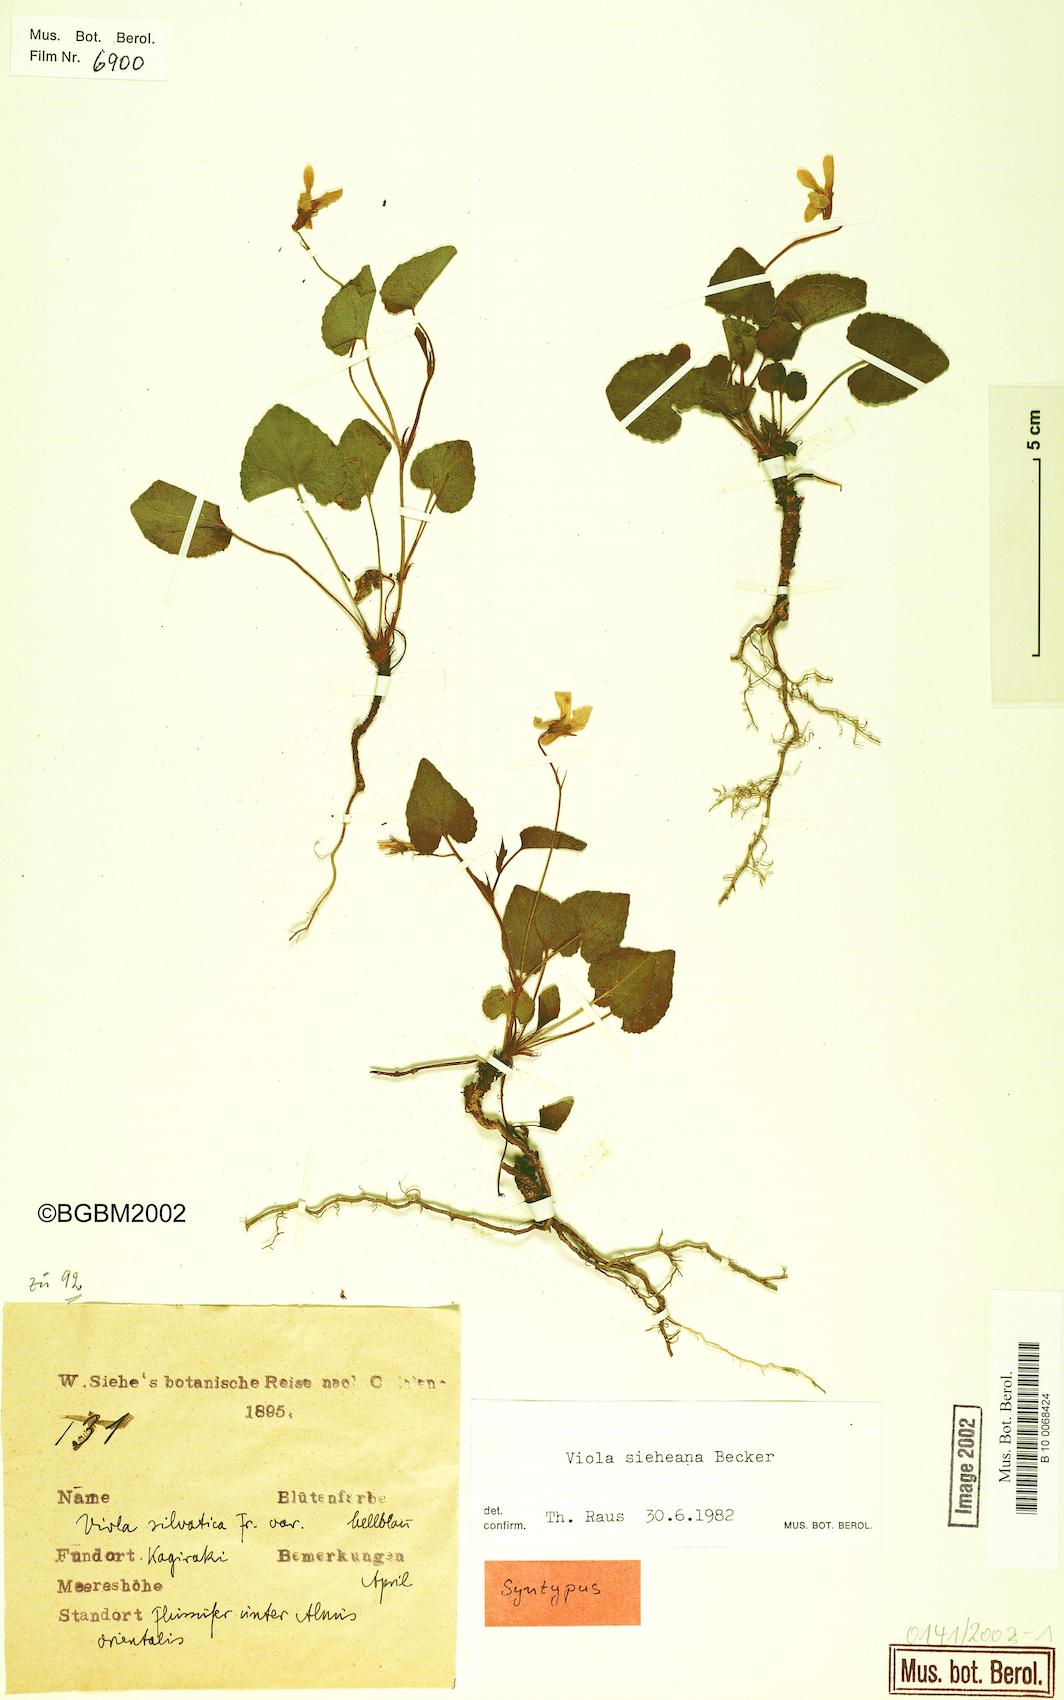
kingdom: Plantae
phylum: Tracheophyta
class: Magnoliopsida
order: Malpighiales
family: Violaceae
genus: Viola
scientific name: Viola sieheana
